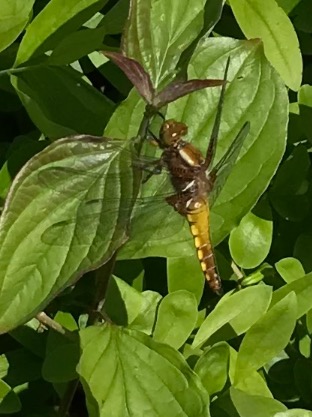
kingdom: Animalia
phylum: Arthropoda
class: Insecta
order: Odonata
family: Libellulidae
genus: Libellula
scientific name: Libellula depressa
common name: Blå libel
